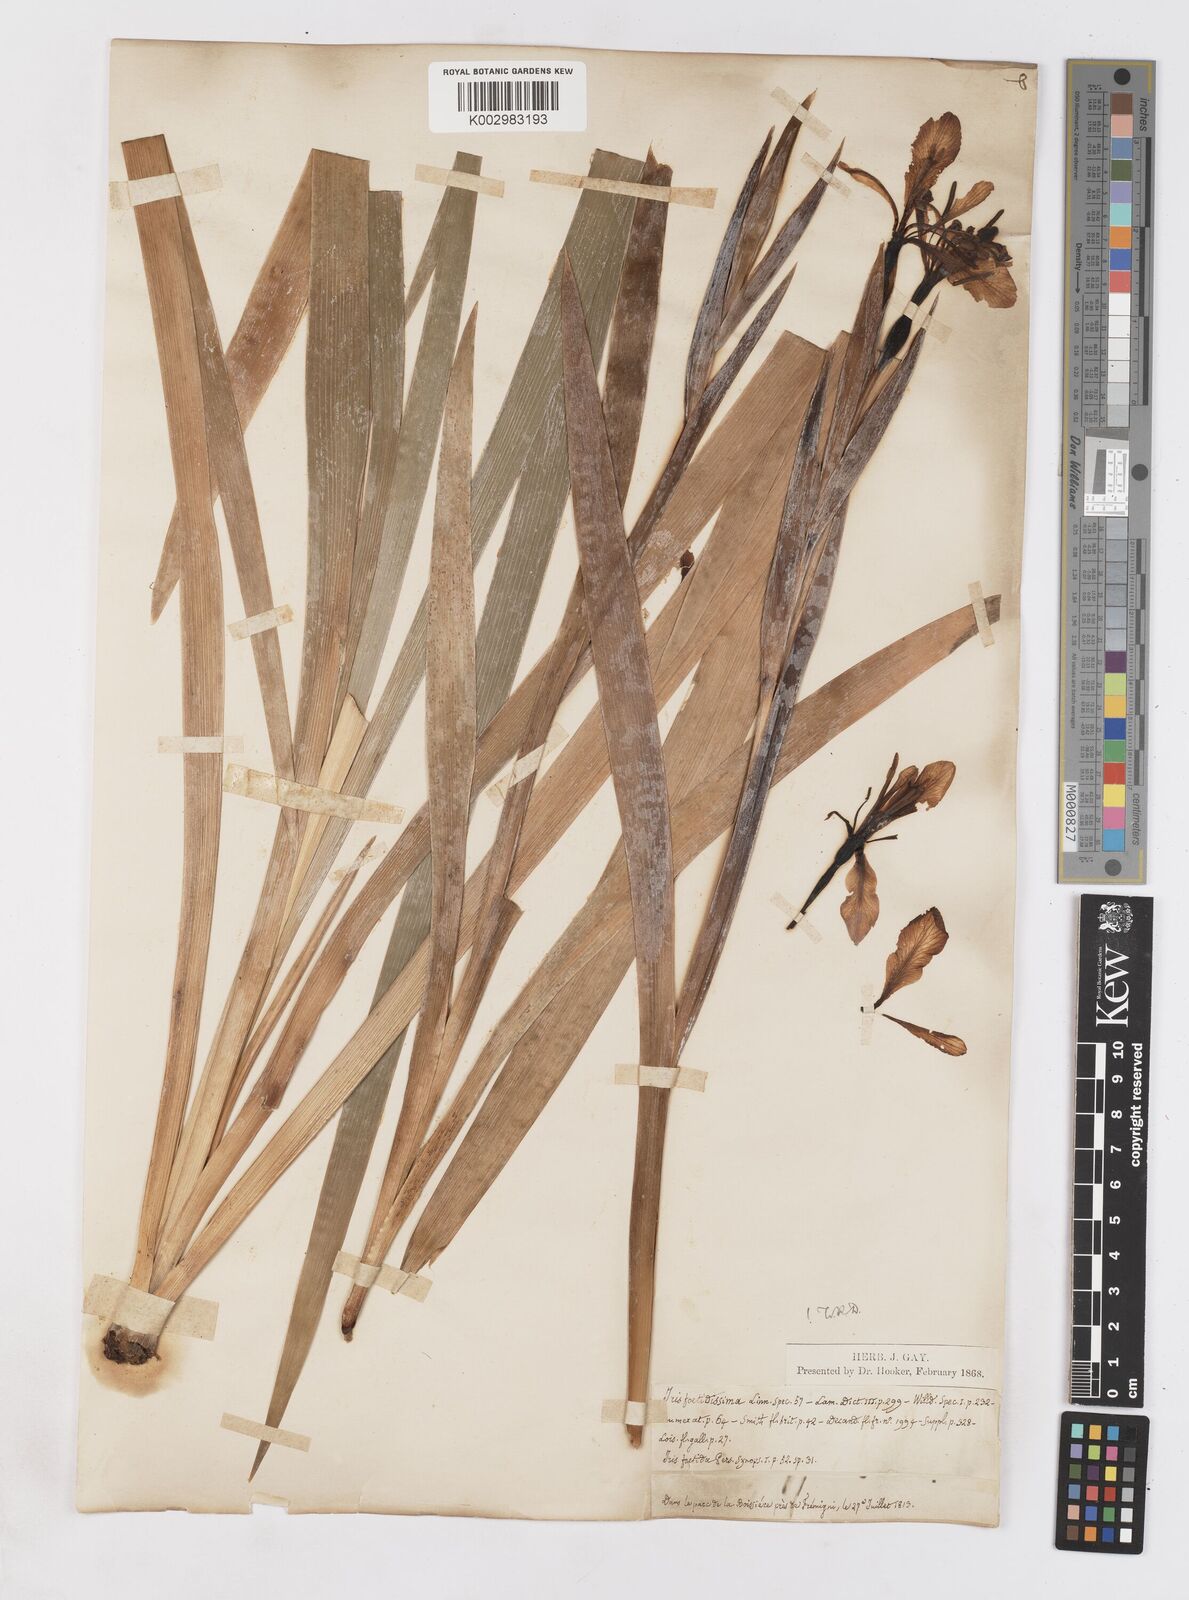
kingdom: Plantae
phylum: Tracheophyta
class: Liliopsida
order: Asparagales
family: Iridaceae
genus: Iris
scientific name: Iris foetidissima
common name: Stinking iris
